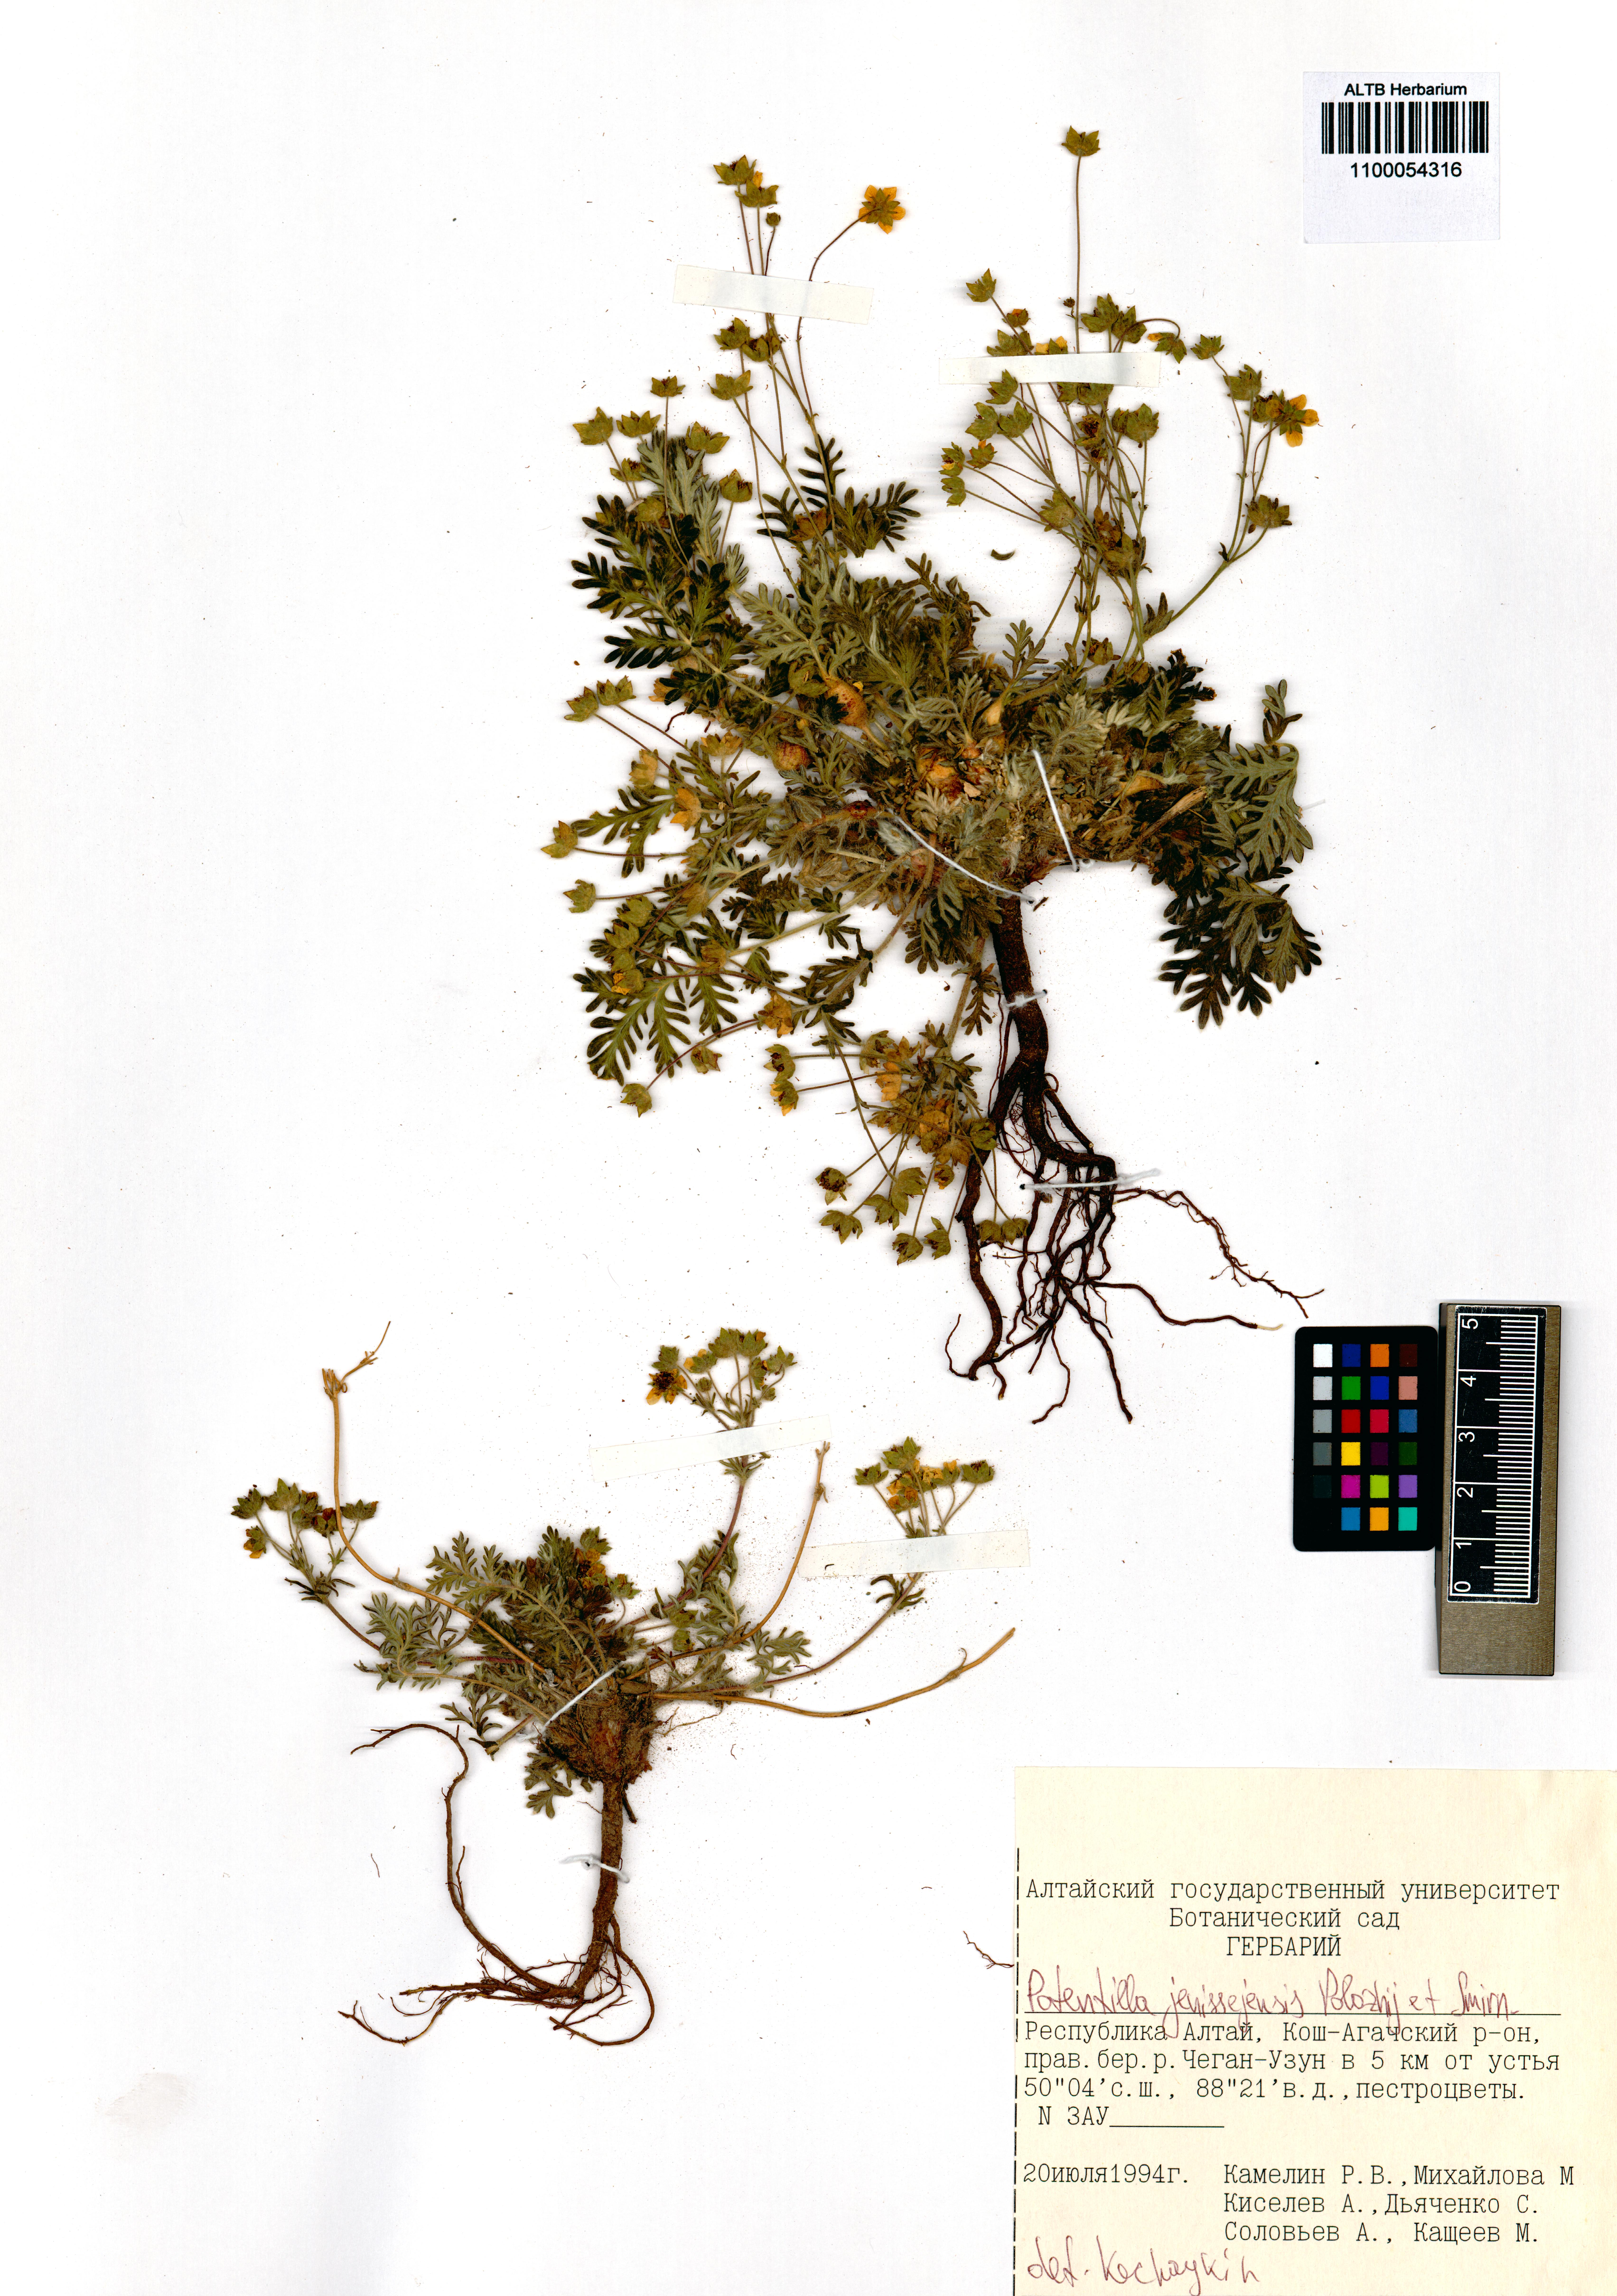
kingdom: Plantae
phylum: Tracheophyta
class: Magnoliopsida
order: Rosales
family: Rosaceae
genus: Potentilla
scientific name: Potentilla jenissejensis
